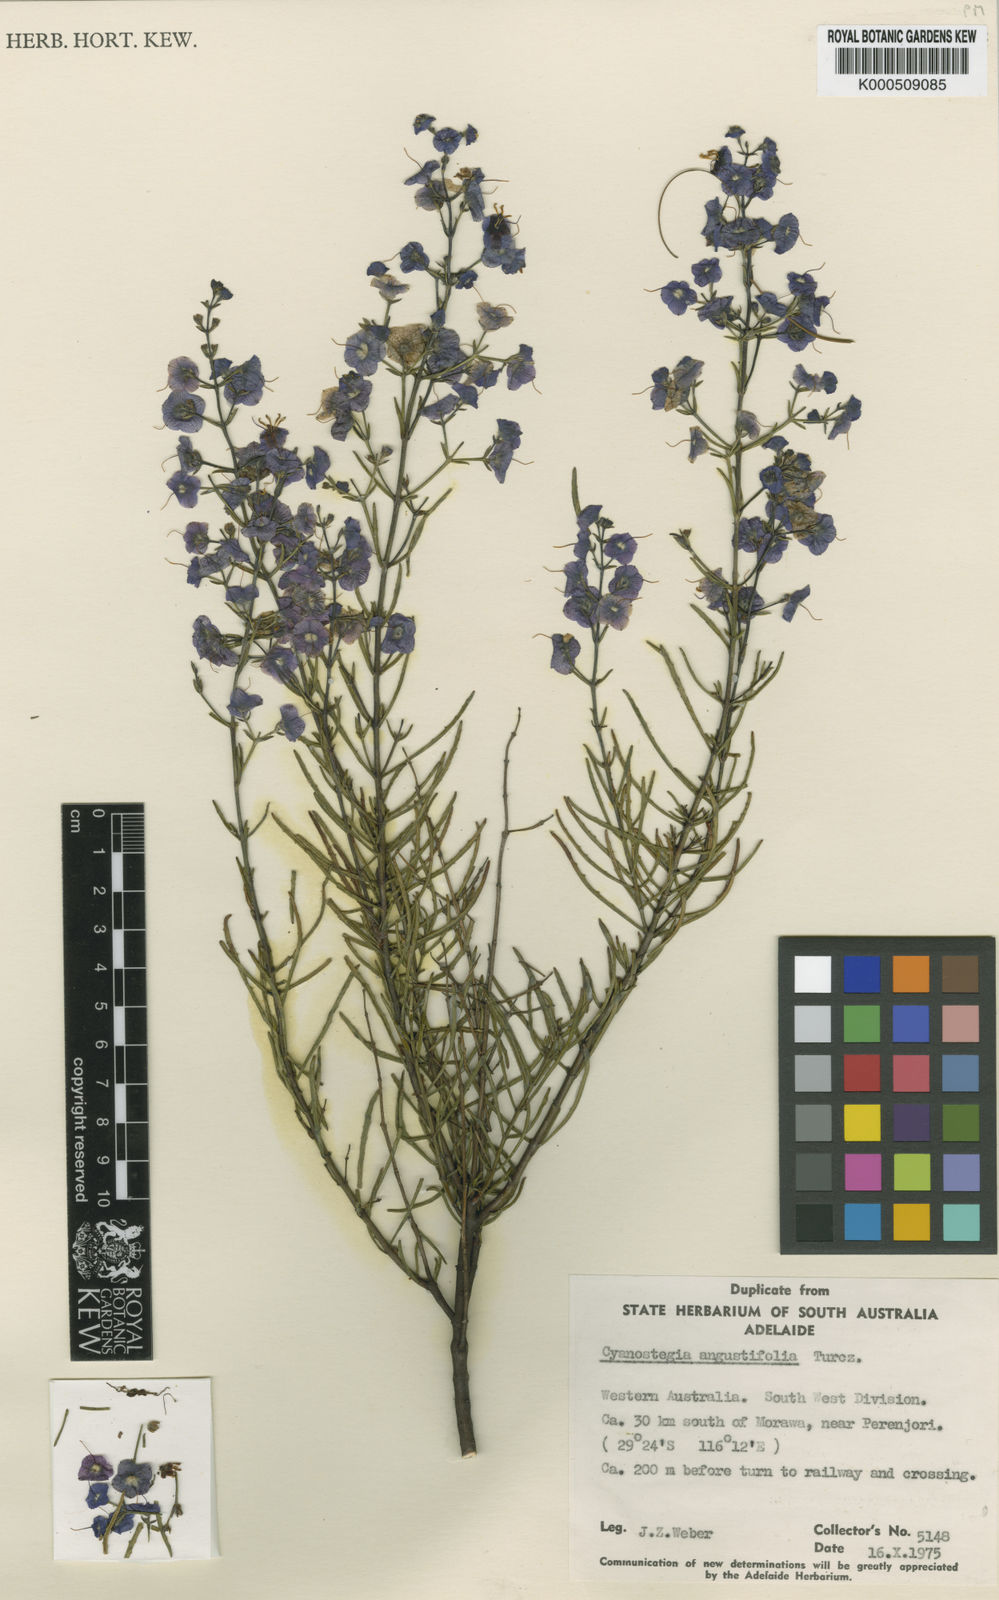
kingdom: Plantae
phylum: Tracheophyta
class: Magnoliopsida
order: Lamiales
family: Lamiaceae
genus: Cyanostegia
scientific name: Cyanostegia angustifolia
